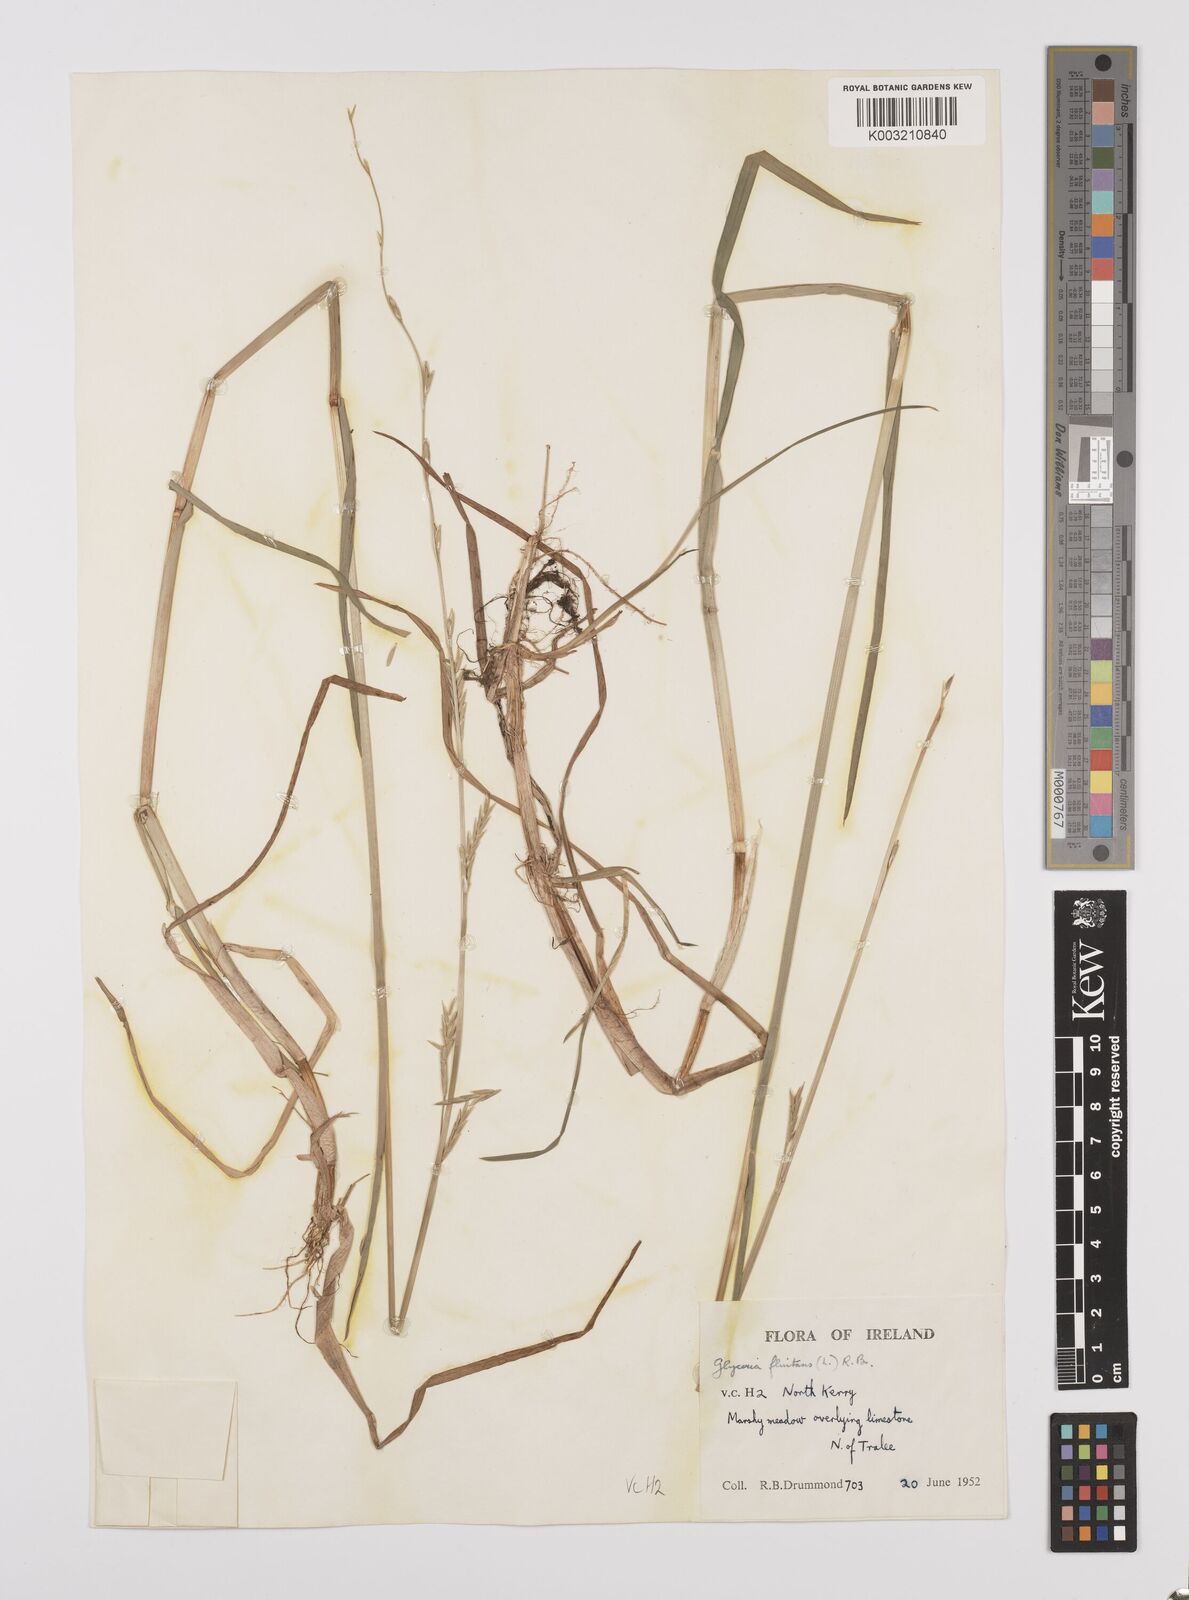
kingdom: Plantae
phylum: Tracheophyta
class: Liliopsida
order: Poales
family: Poaceae
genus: Glyceria
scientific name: Glyceria fluitans
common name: Floating sweet-grass
